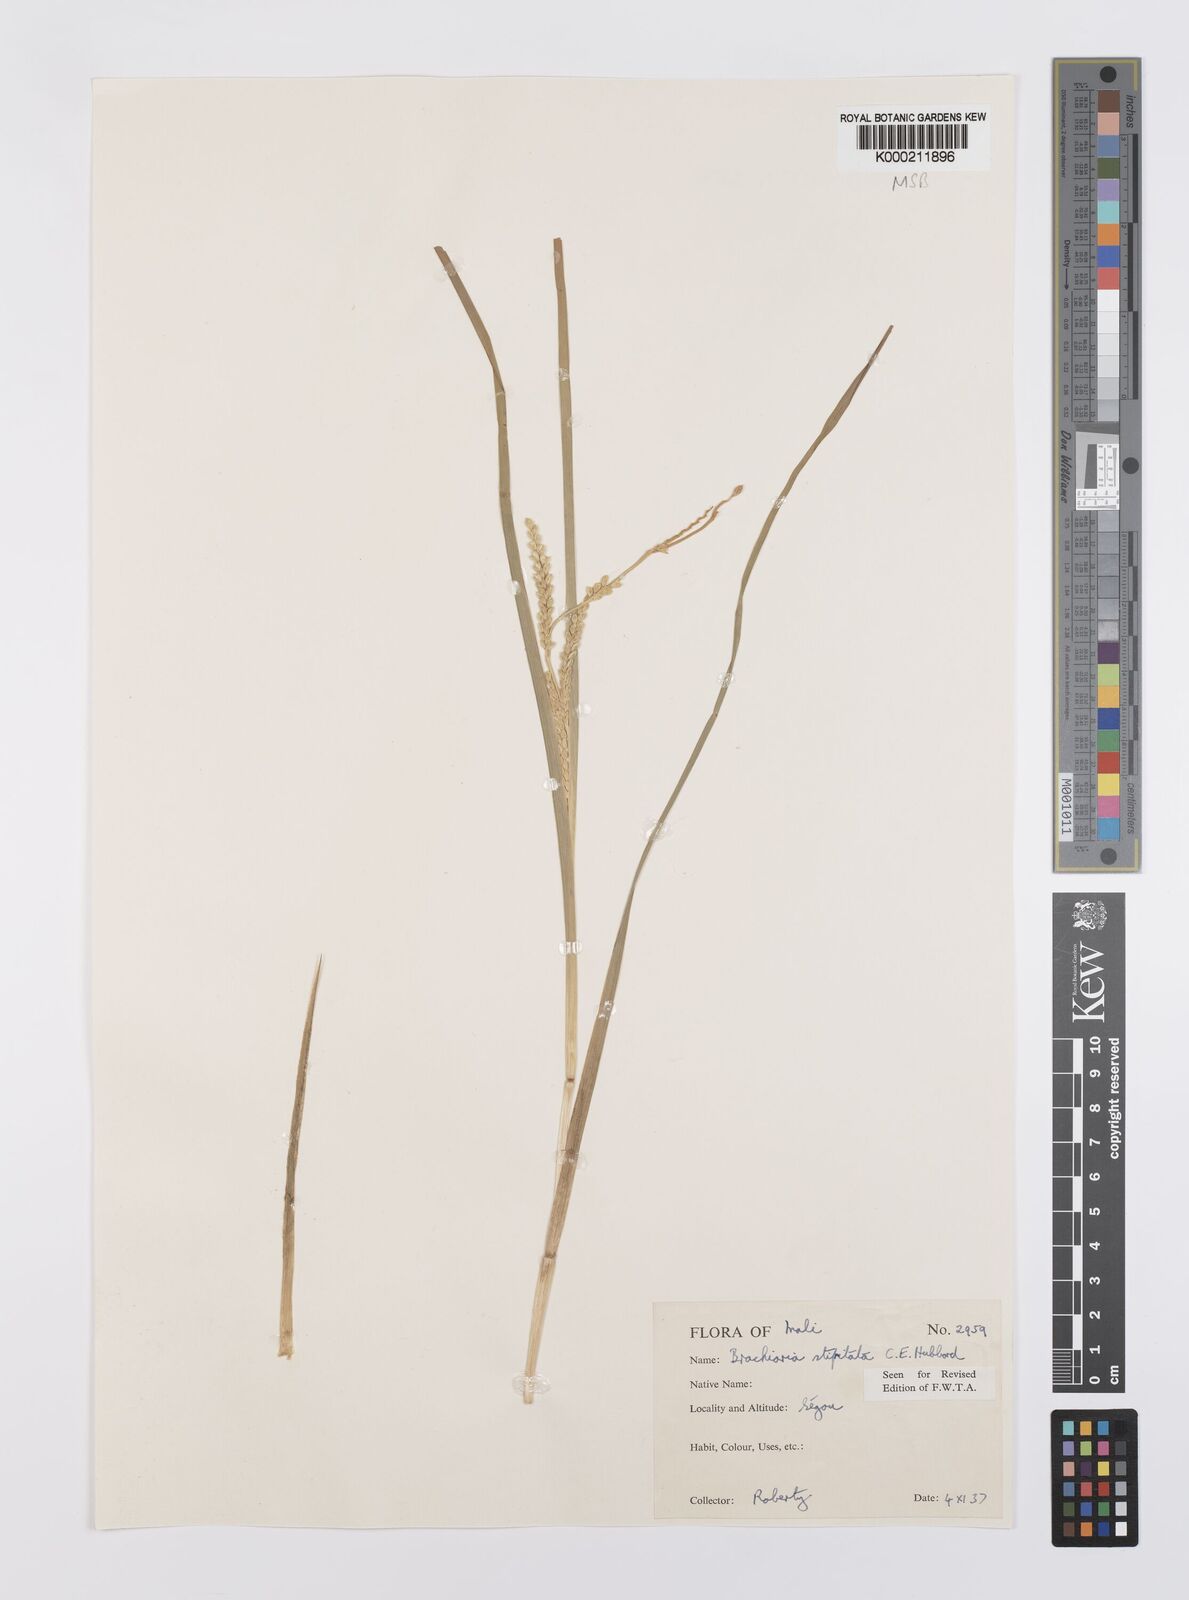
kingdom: Plantae
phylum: Tracheophyta
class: Liliopsida
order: Poales
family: Poaceae
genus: Echinochloa
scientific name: Echinochloa callopus
